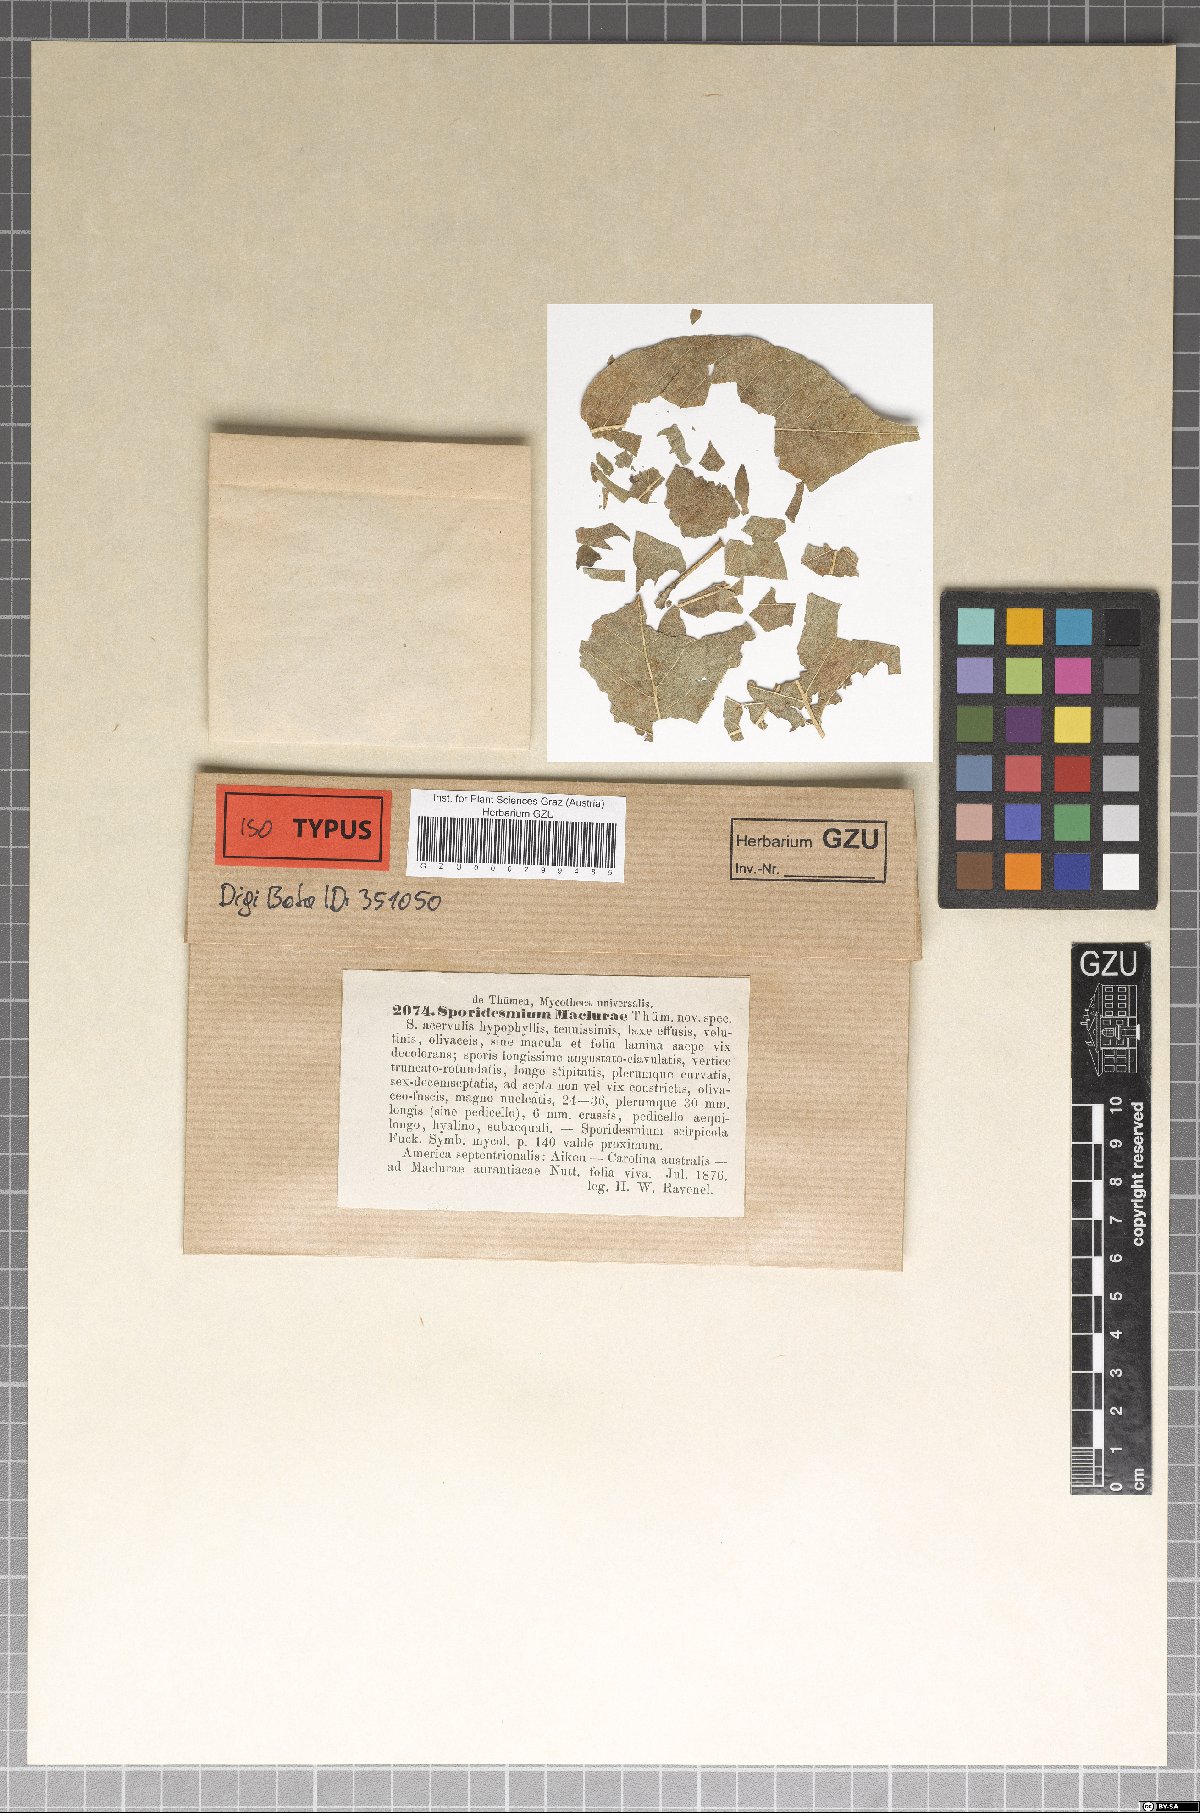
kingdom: Fungi
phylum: Ascomycota
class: Dothideomycetes
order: Mycosphaerellales
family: Mycosphaerellaceae
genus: Pseudocercospora
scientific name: Pseudocercospora maclurae
